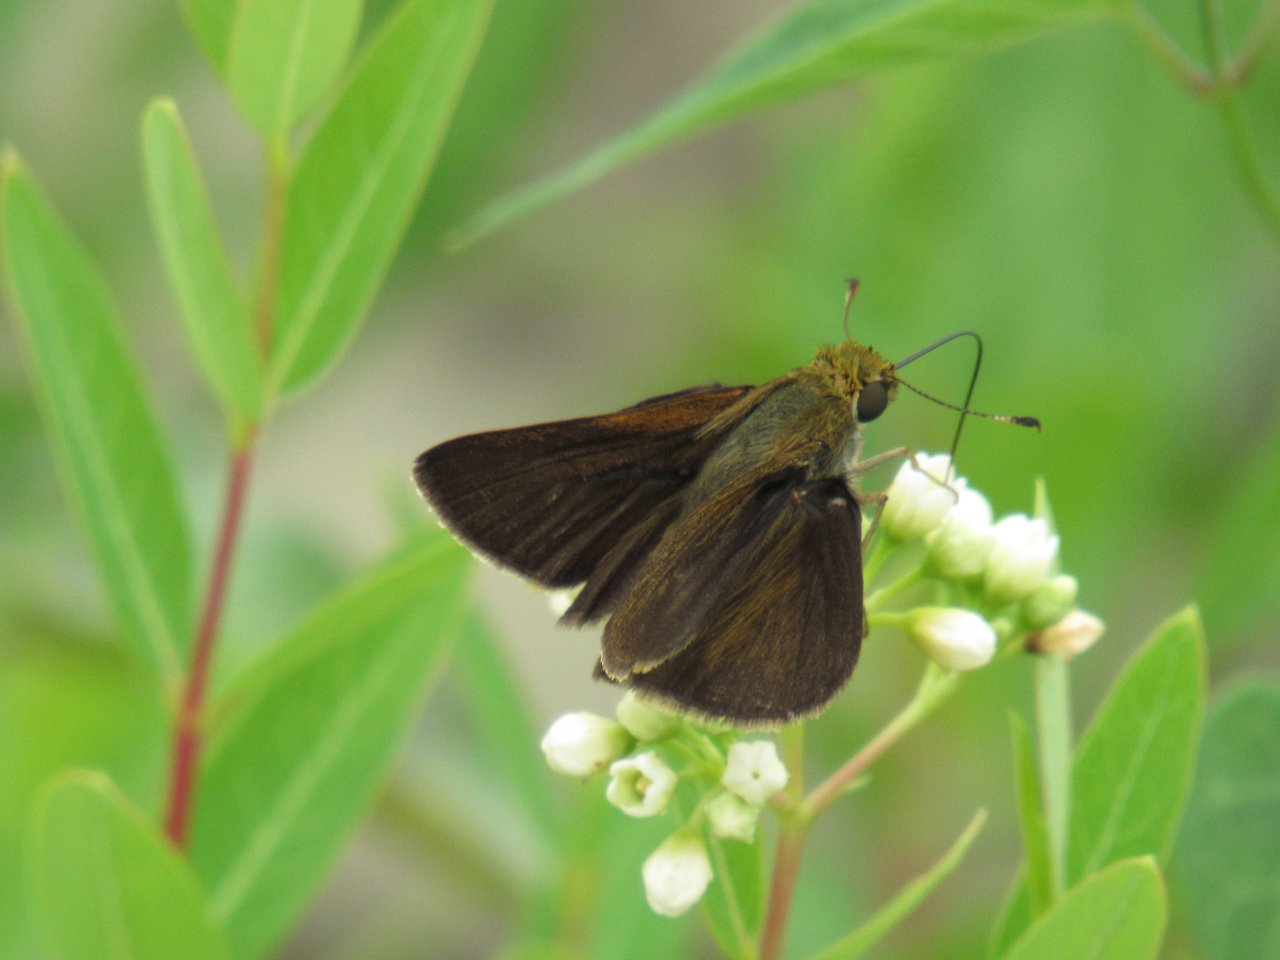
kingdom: Animalia
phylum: Arthropoda
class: Insecta
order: Lepidoptera
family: Hesperiidae
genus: Euphyes
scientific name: Euphyes vestris
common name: Dun Skipper
